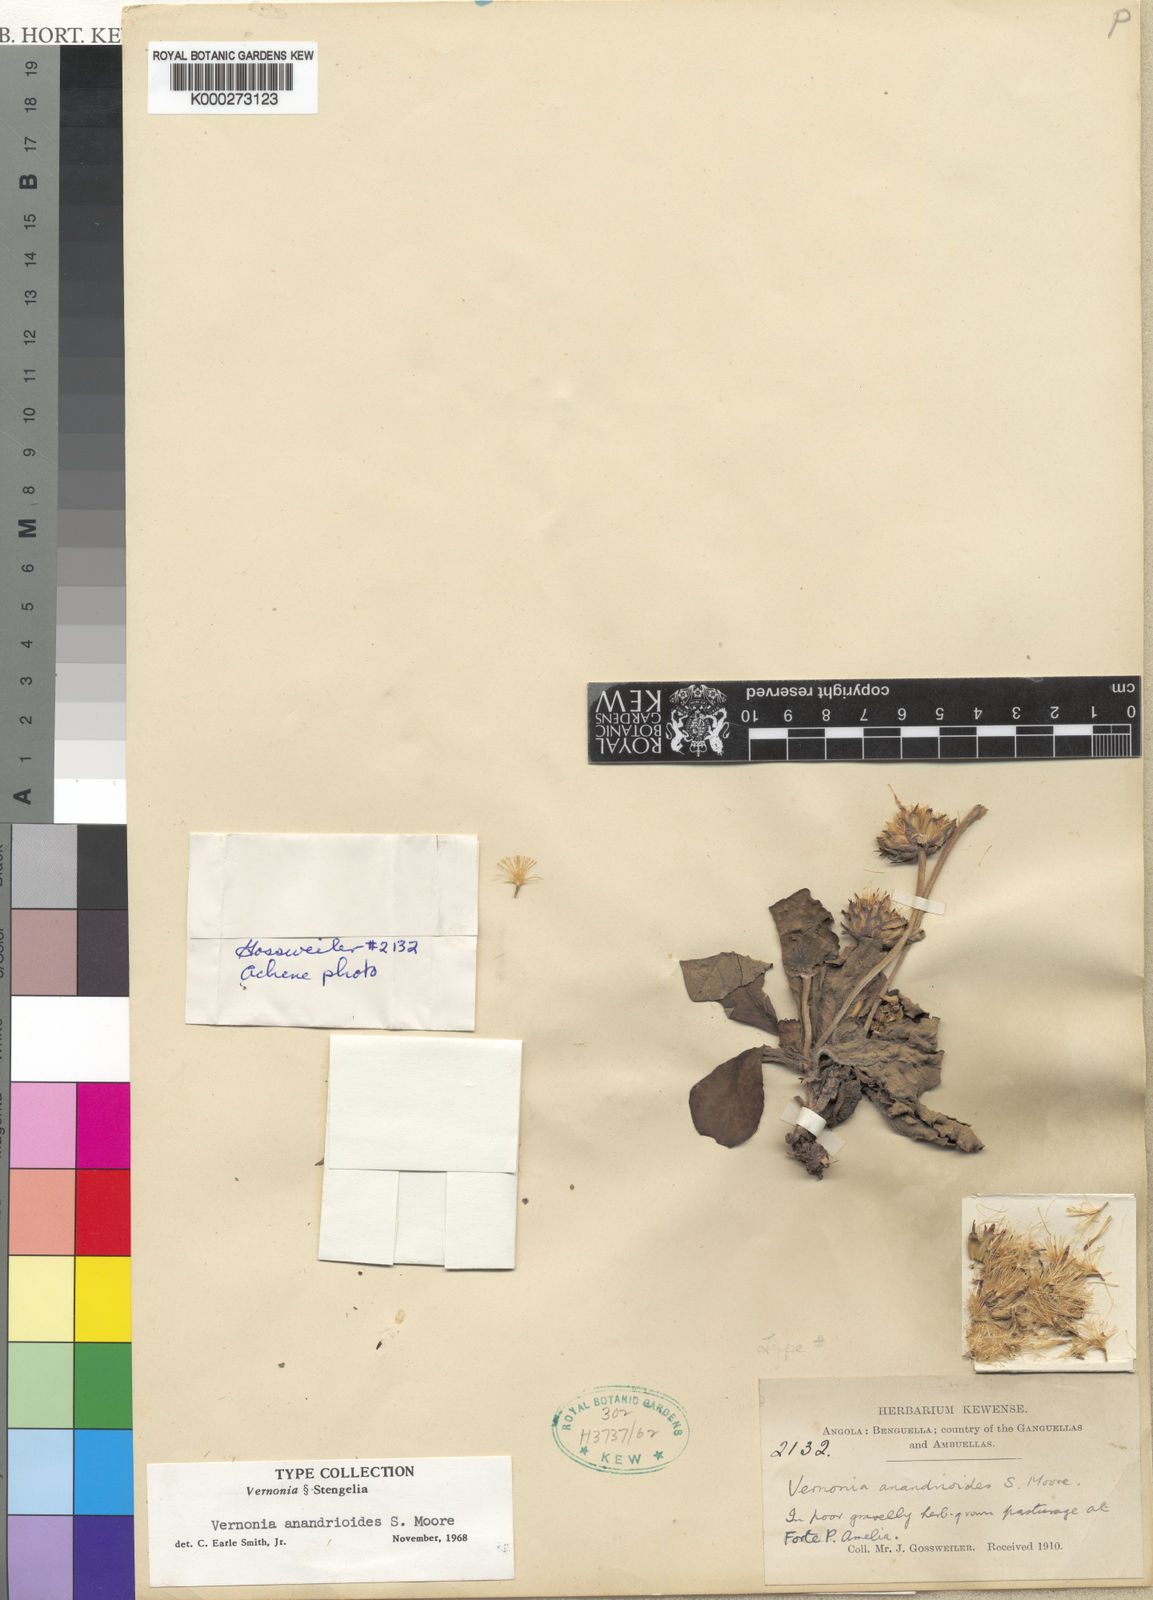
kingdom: Plantae
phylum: Tracheophyta
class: Magnoliopsida
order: Asterales
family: Asteraceae
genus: Vernonia
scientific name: Vernonia anandrioides
